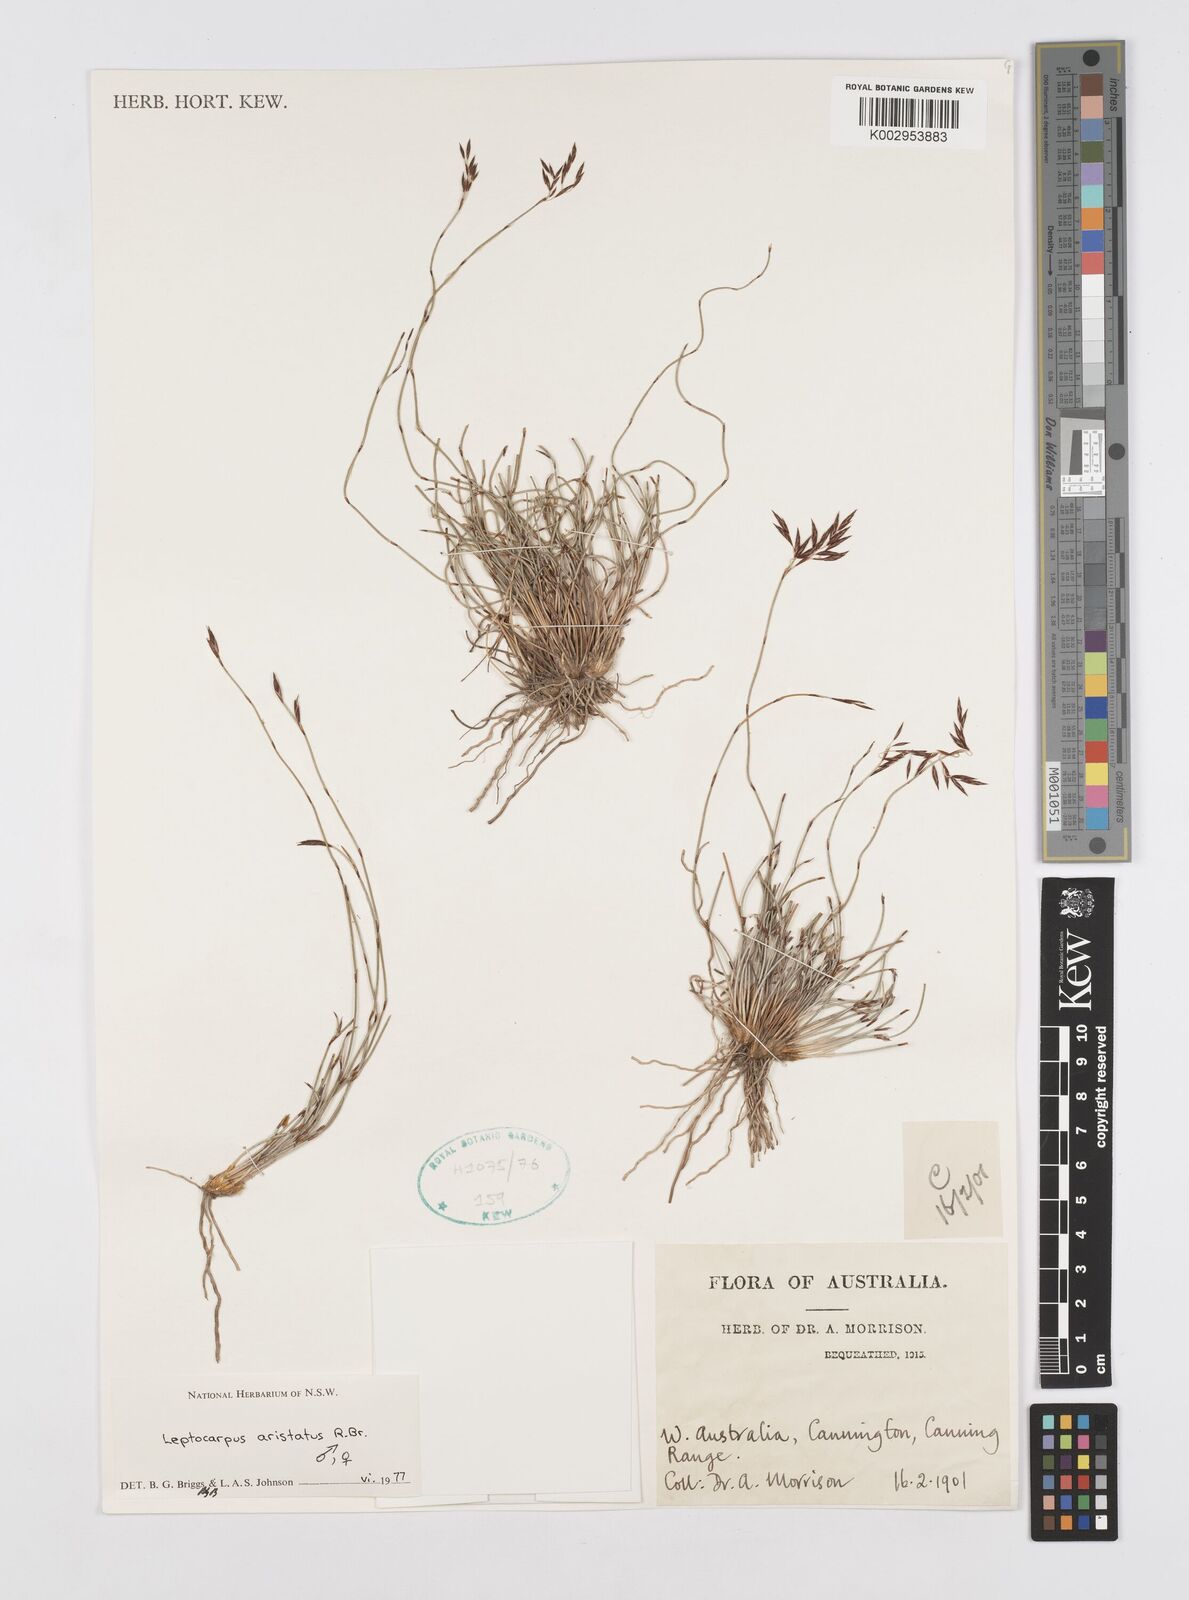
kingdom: Plantae
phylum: Tracheophyta
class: Liliopsida
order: Poales
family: Restionaceae
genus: Chaetanthus
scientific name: Chaetanthus aristatus
